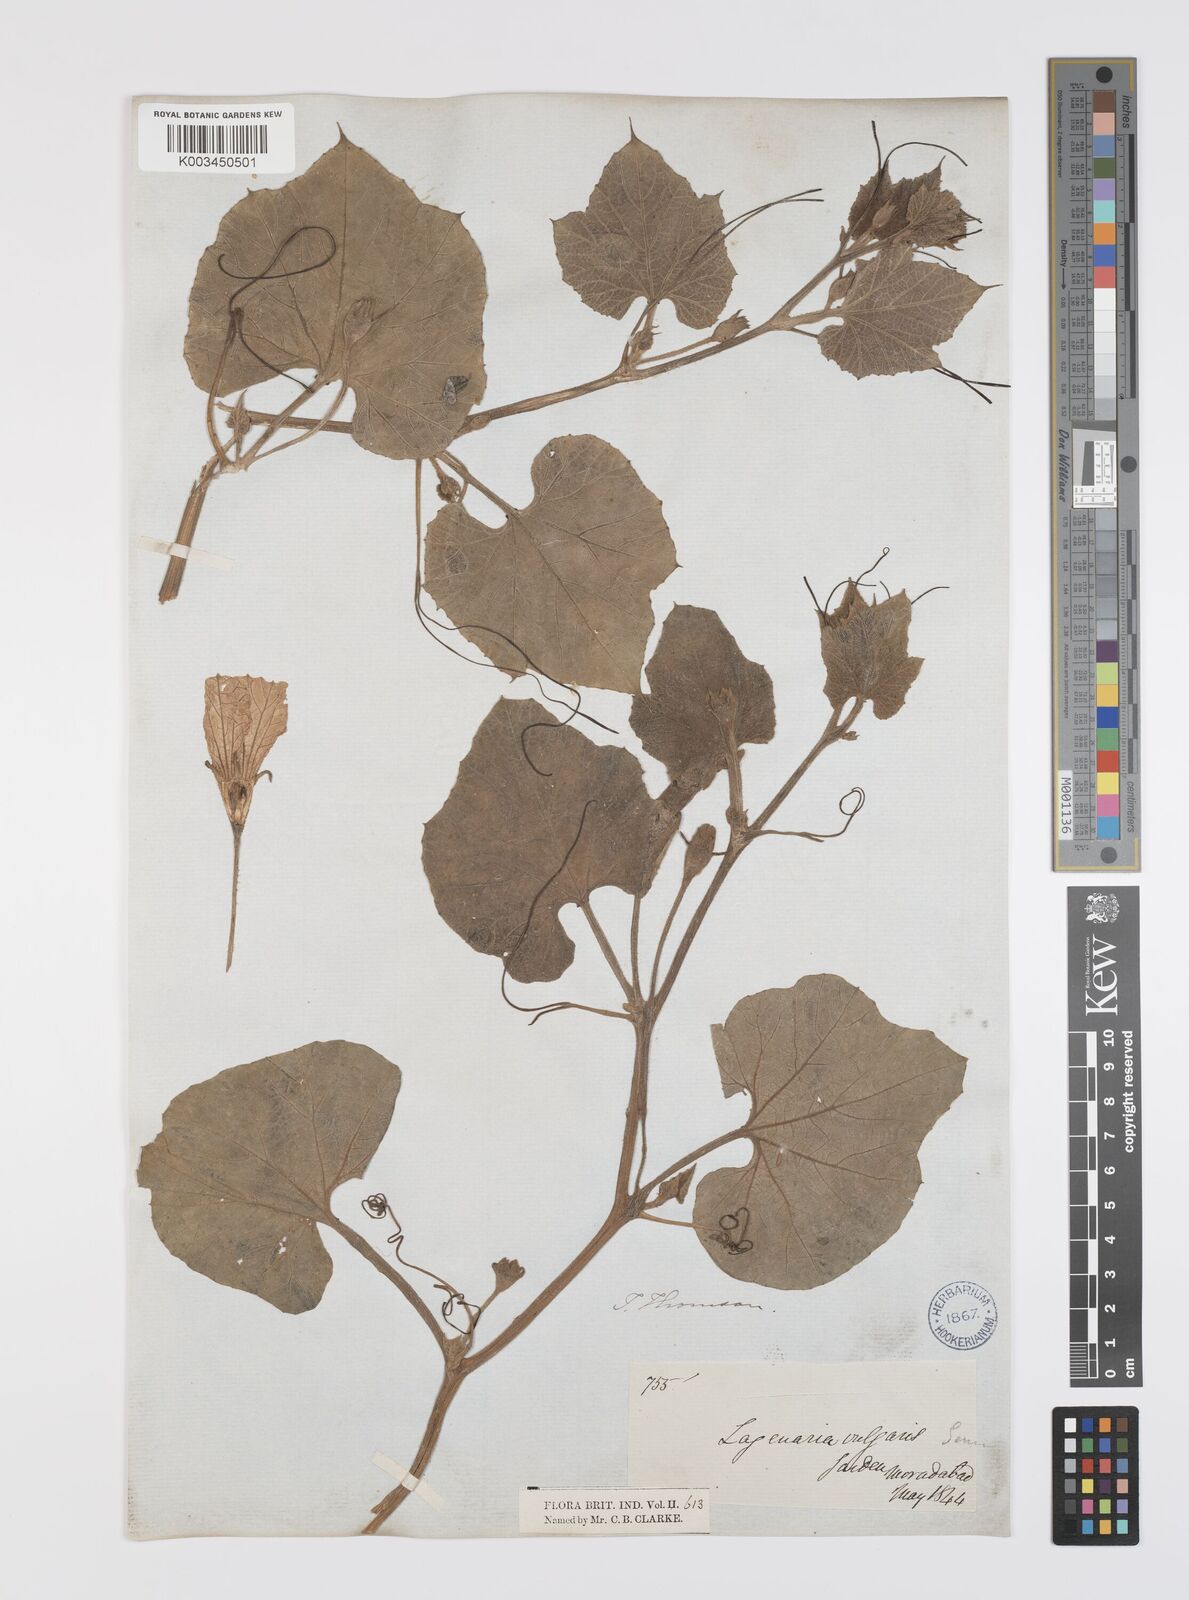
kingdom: Plantae
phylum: Tracheophyta
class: Magnoliopsida
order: Cucurbitales
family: Cucurbitaceae
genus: Lagenaria
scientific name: Lagenaria siceraria
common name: Bottle gourd
